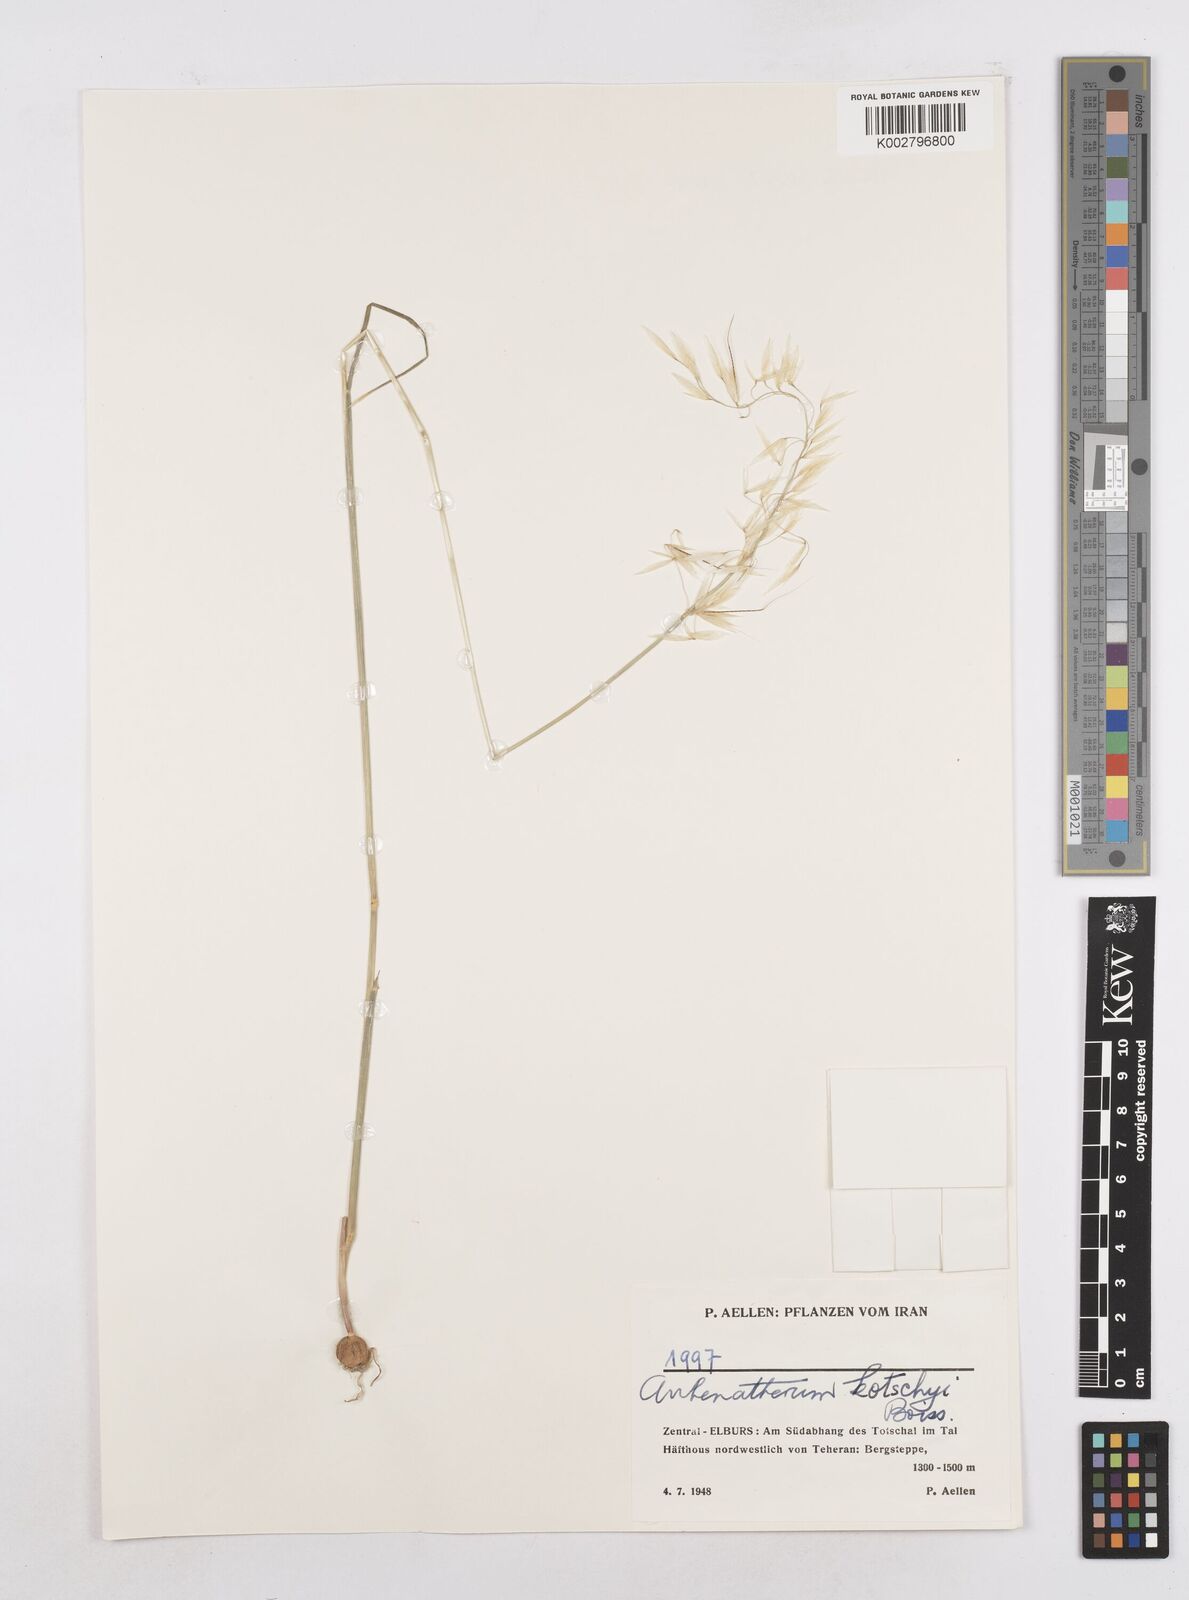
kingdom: Plantae
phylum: Tracheophyta
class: Liliopsida
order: Poales
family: Poaceae
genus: Arrhenatherum
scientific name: Arrhenatherum kotschyi
